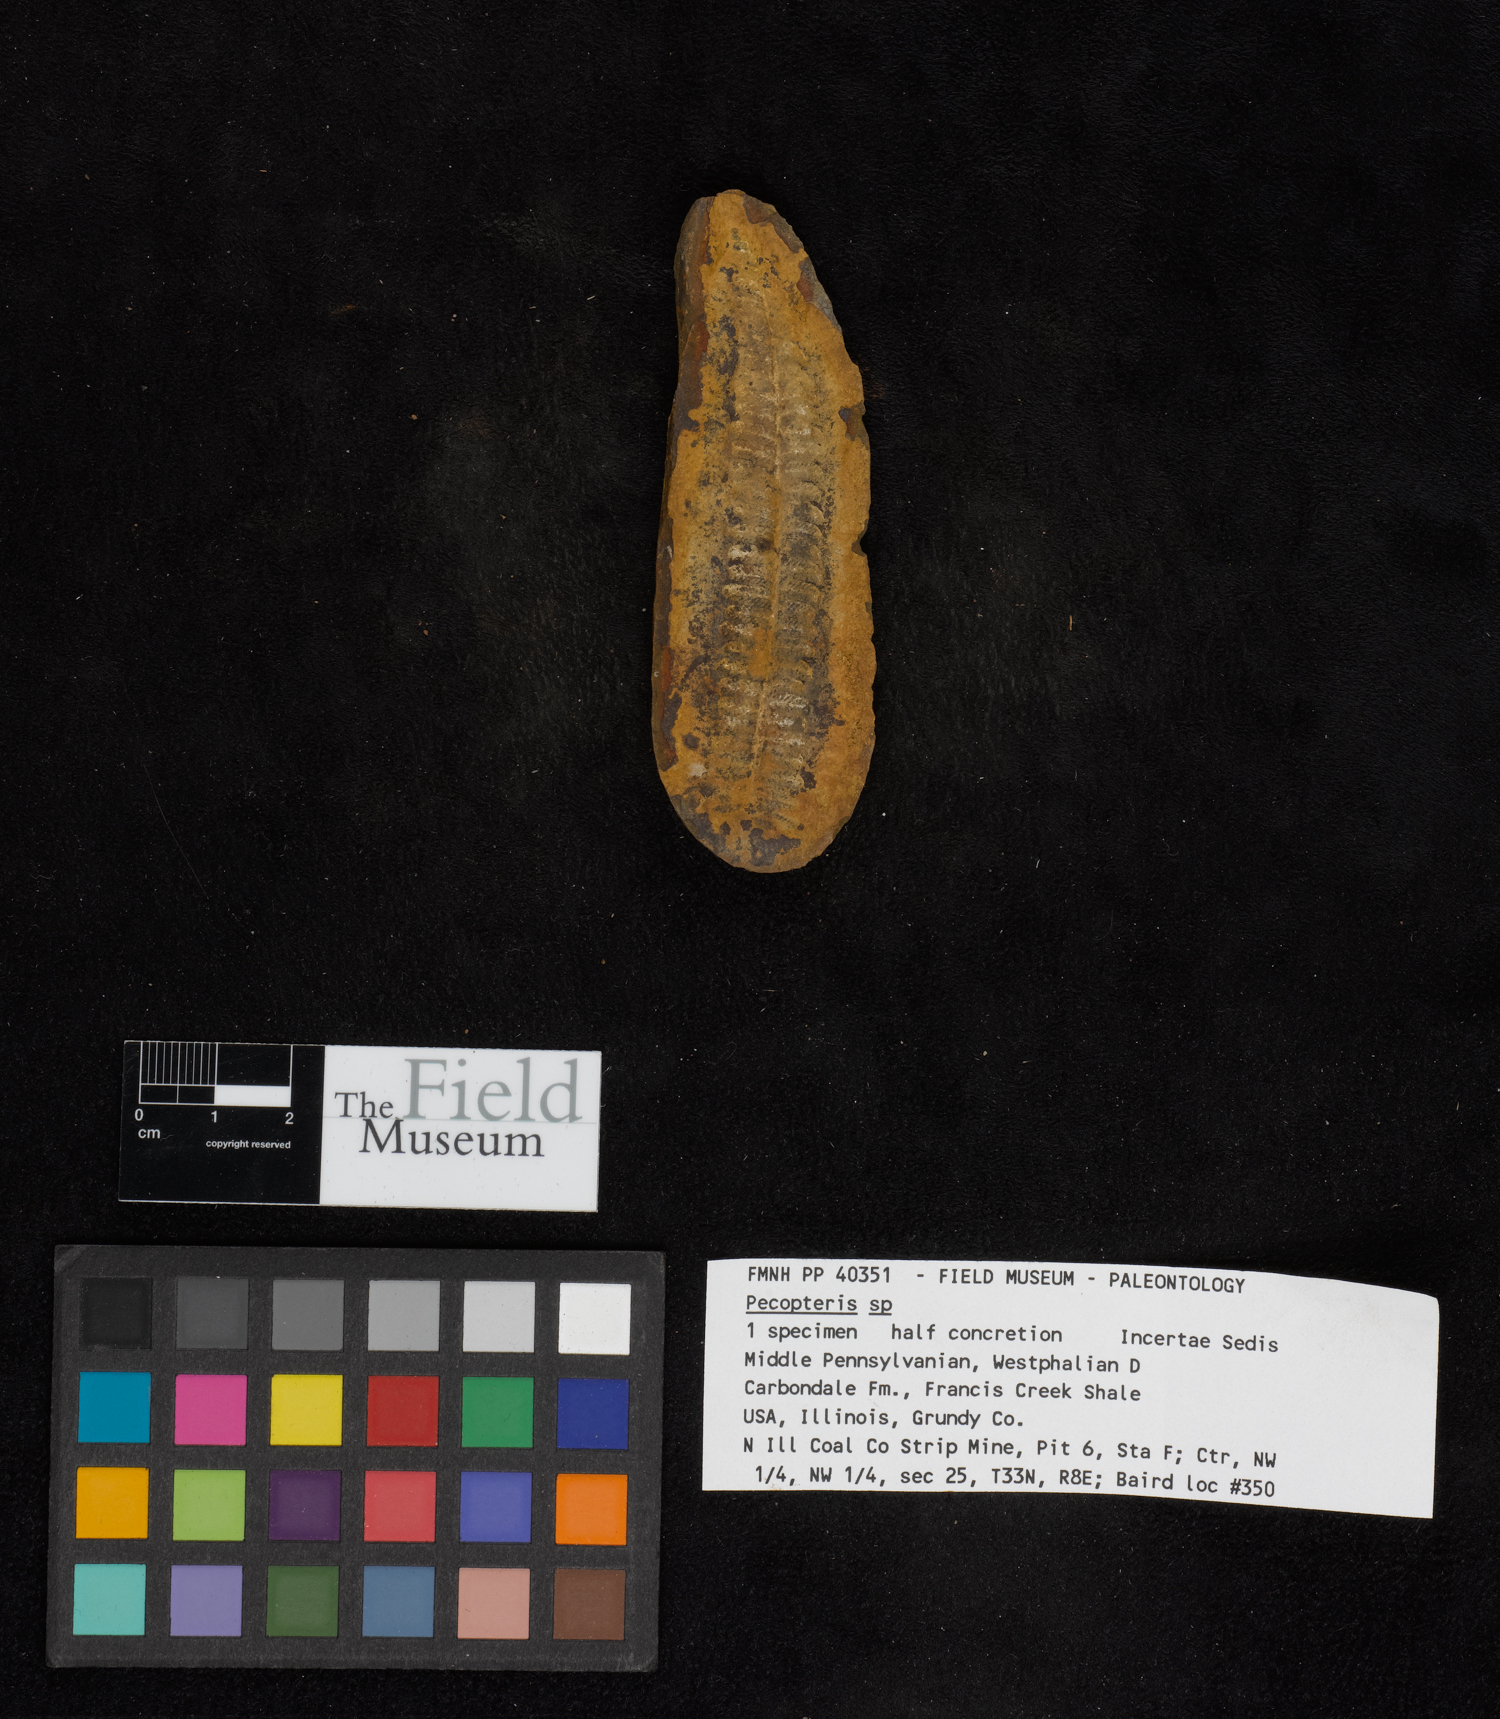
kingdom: Plantae
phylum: Tracheophyta
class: Polypodiopsida
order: Marattiales
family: Asterothecaceae
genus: Pecopteris
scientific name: Pecopteris
